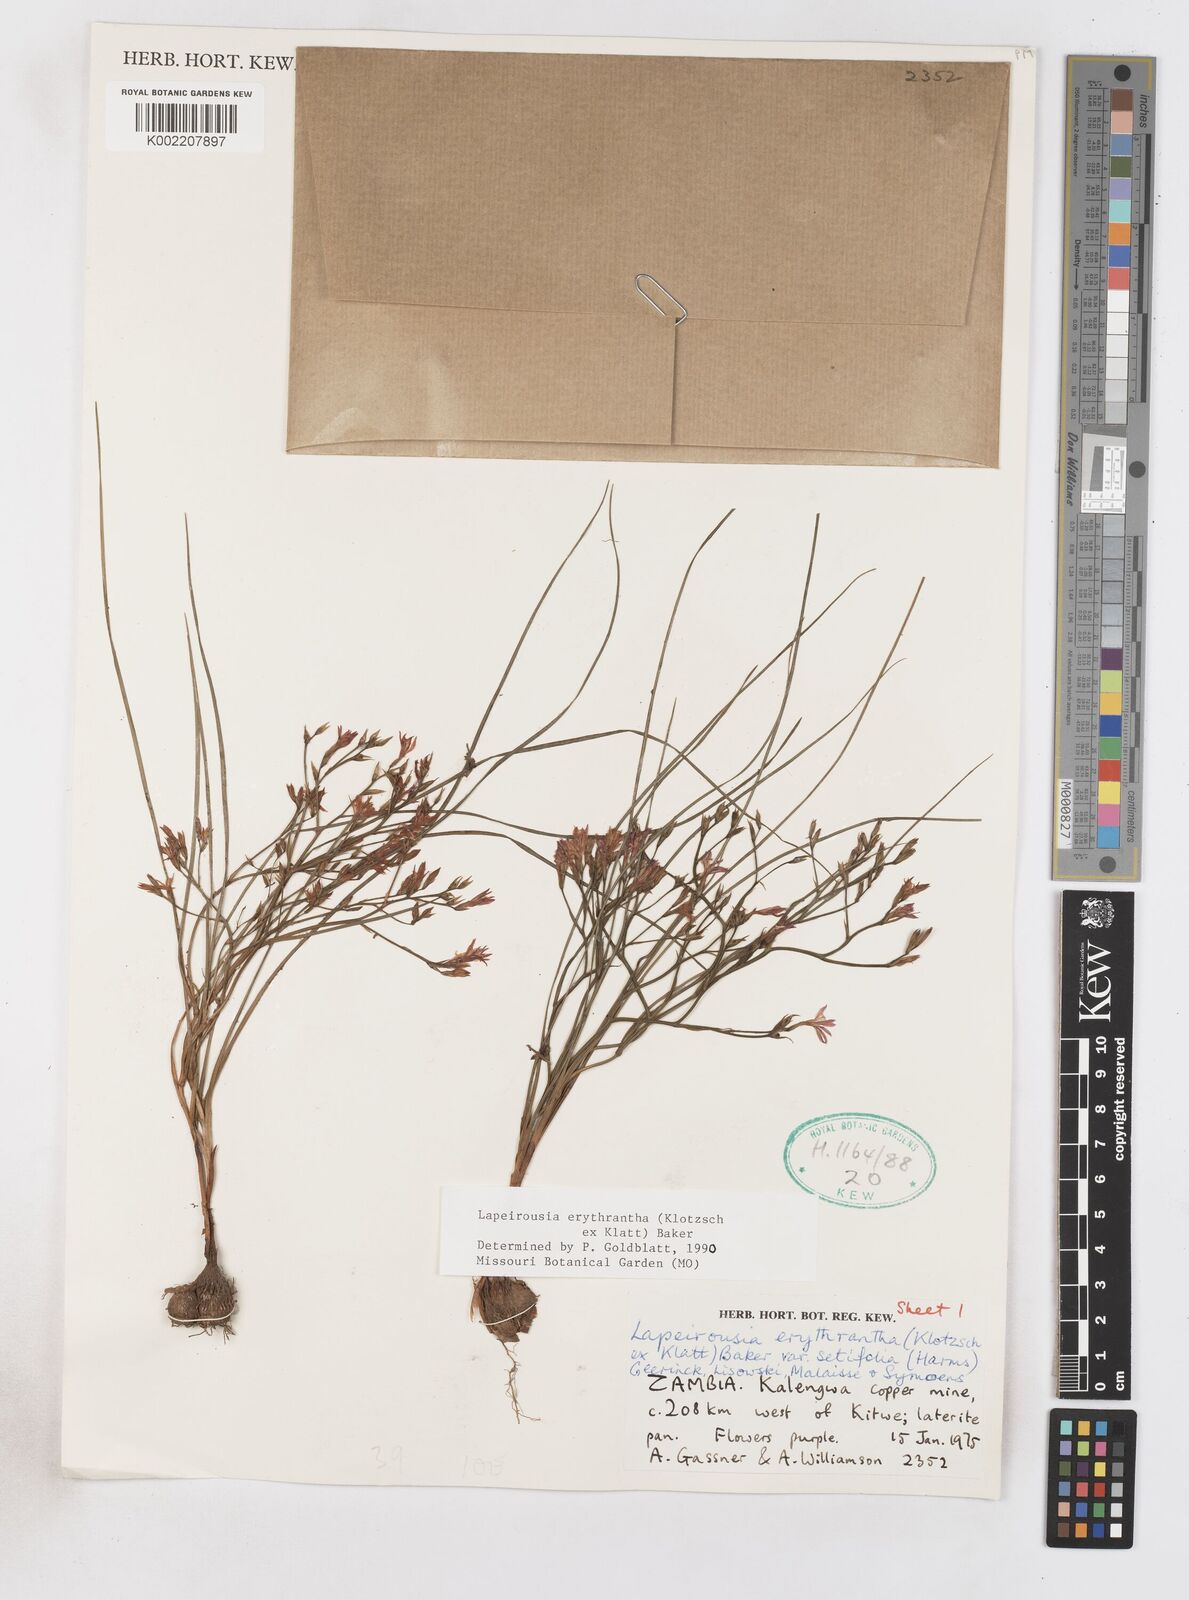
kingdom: Plantae
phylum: Tracheophyta
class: Liliopsida
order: Asparagales
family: Iridaceae
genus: Afrosolen
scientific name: Afrosolen erythranthus
